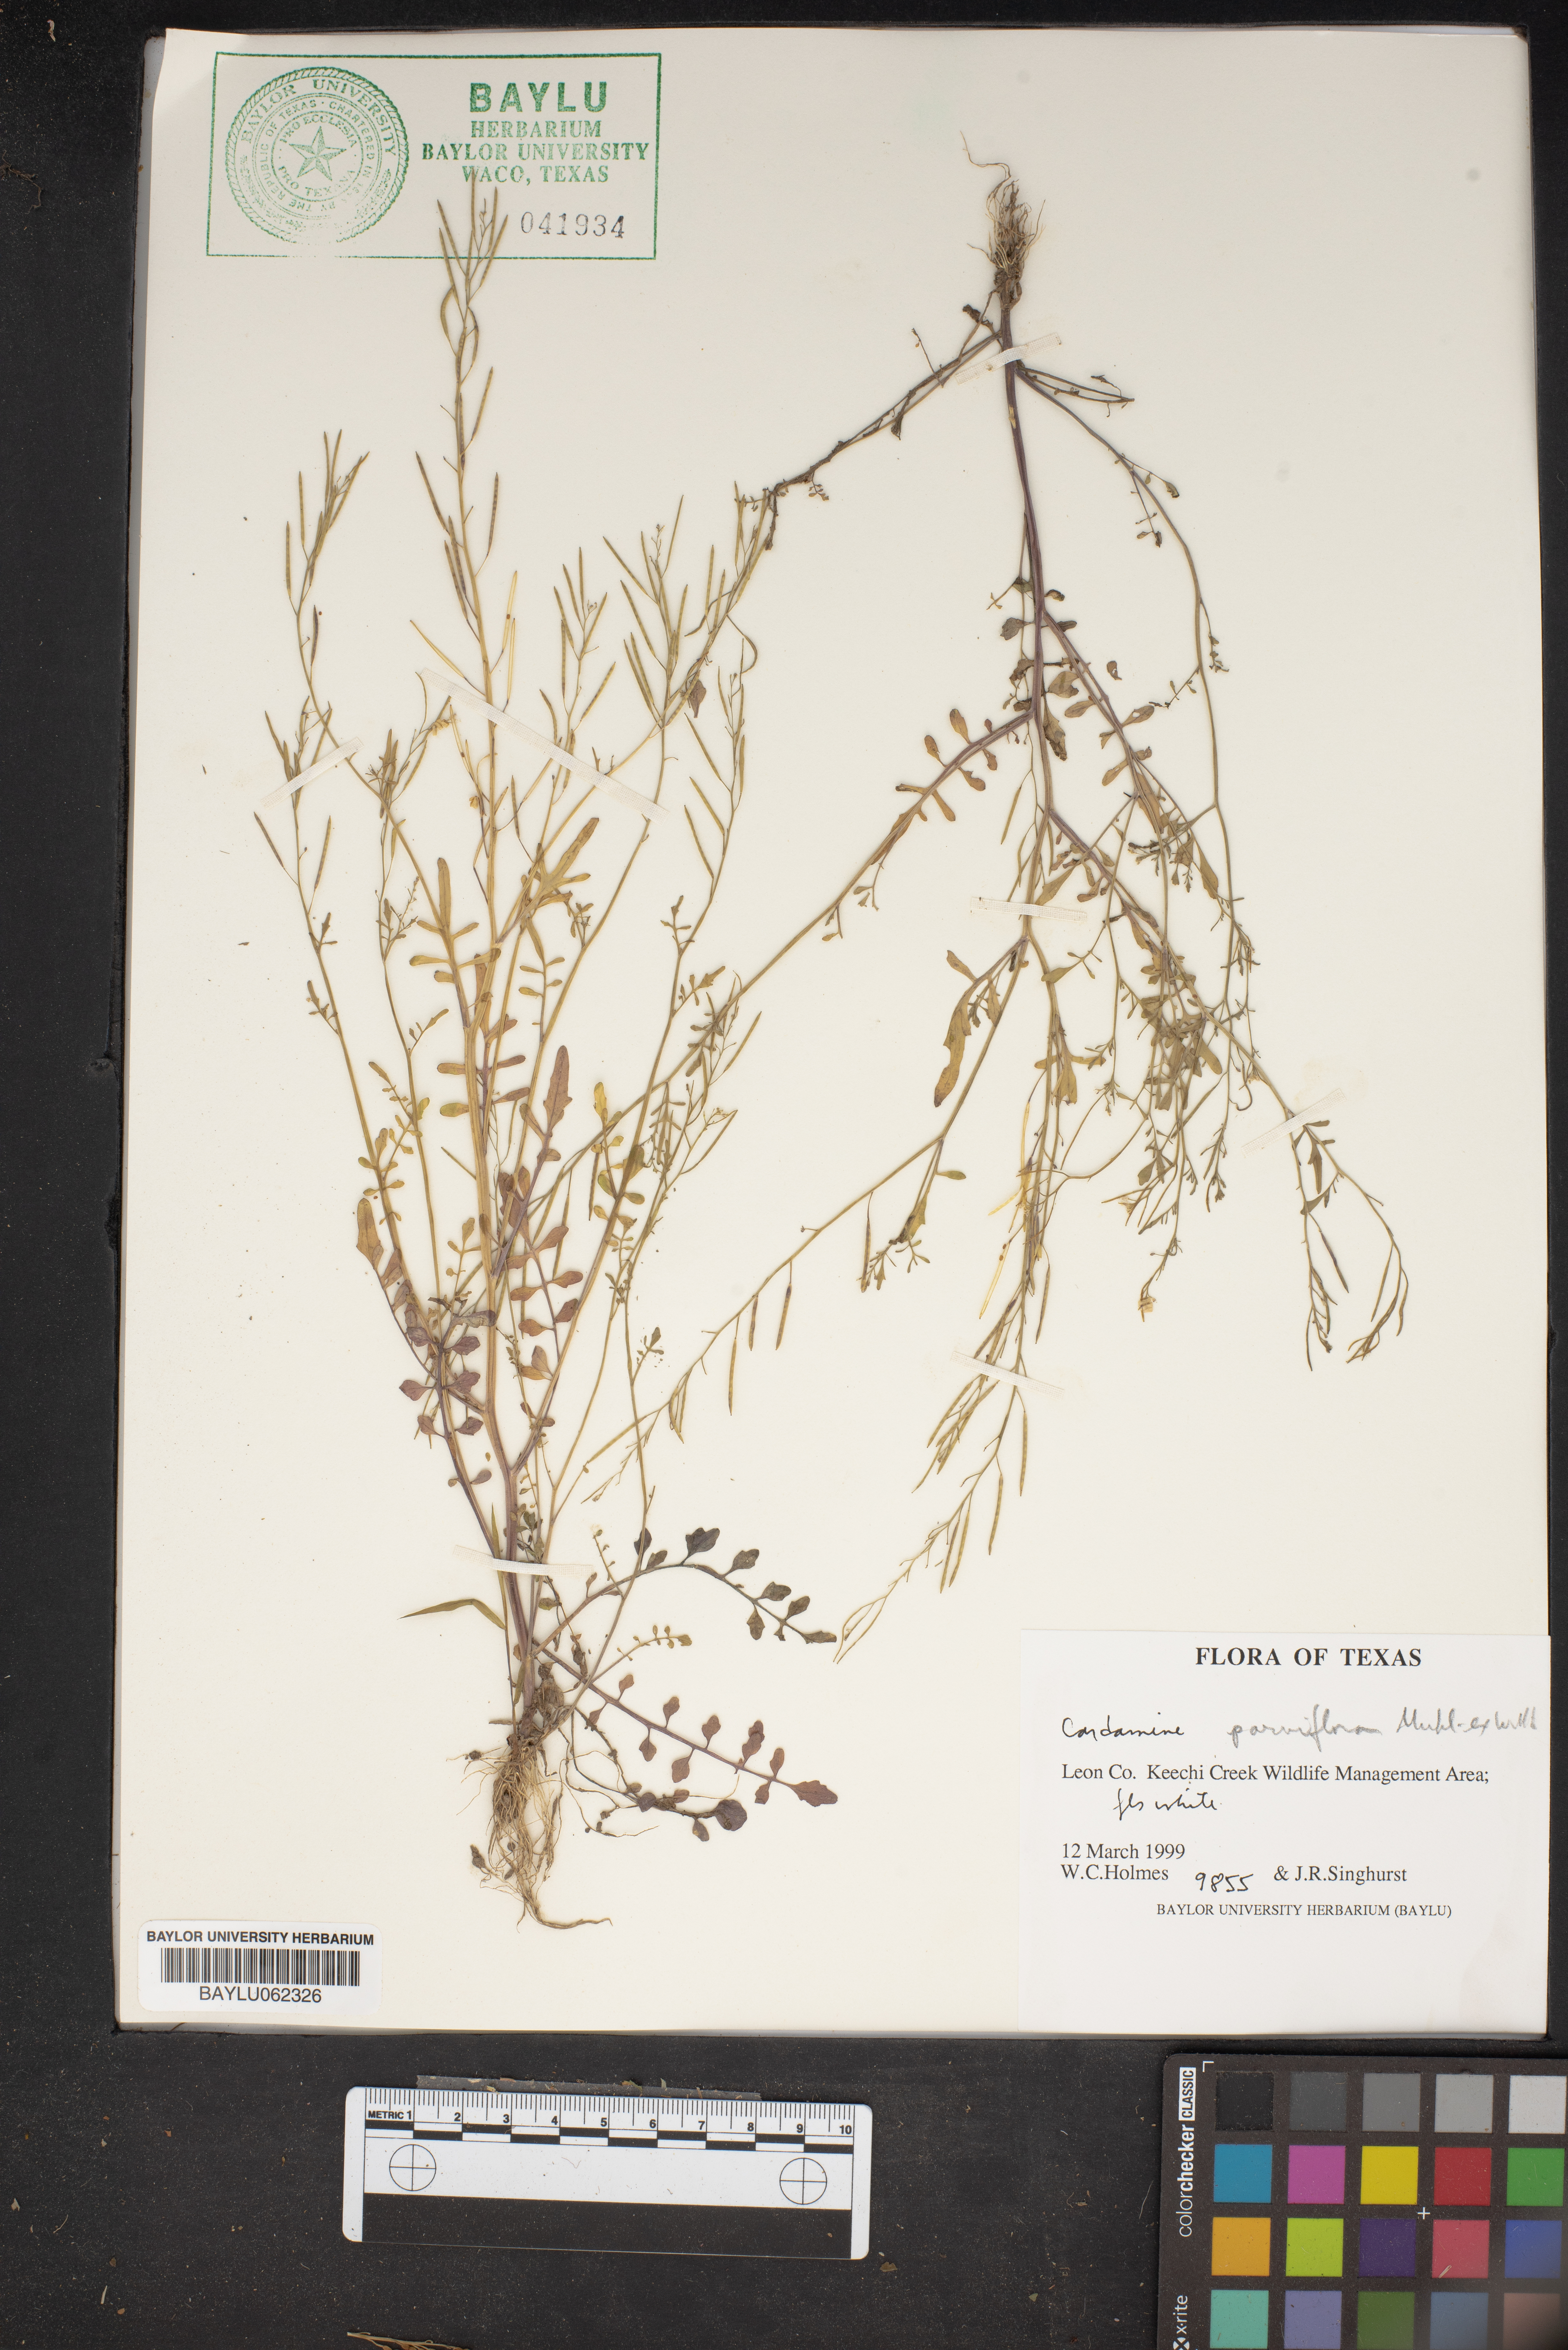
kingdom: Plantae
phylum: Tracheophyta
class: Magnoliopsida
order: Brassicales
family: Brassicaceae
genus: Cardamine
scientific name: Cardamine parviflora
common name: Sand bittercress
